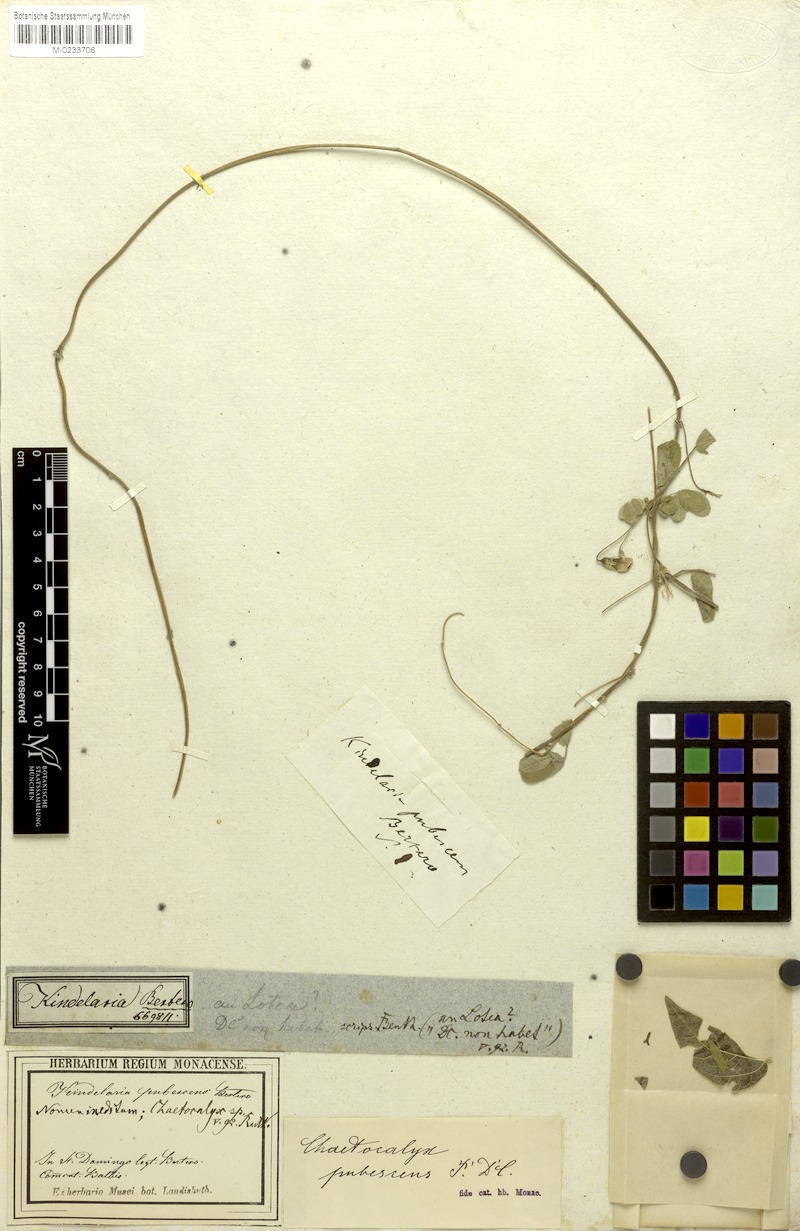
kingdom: Plantae
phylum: Tracheophyta
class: Magnoliopsida
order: Fabales
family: Fabaceae
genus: Nissolia
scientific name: Nissolia vincentina
